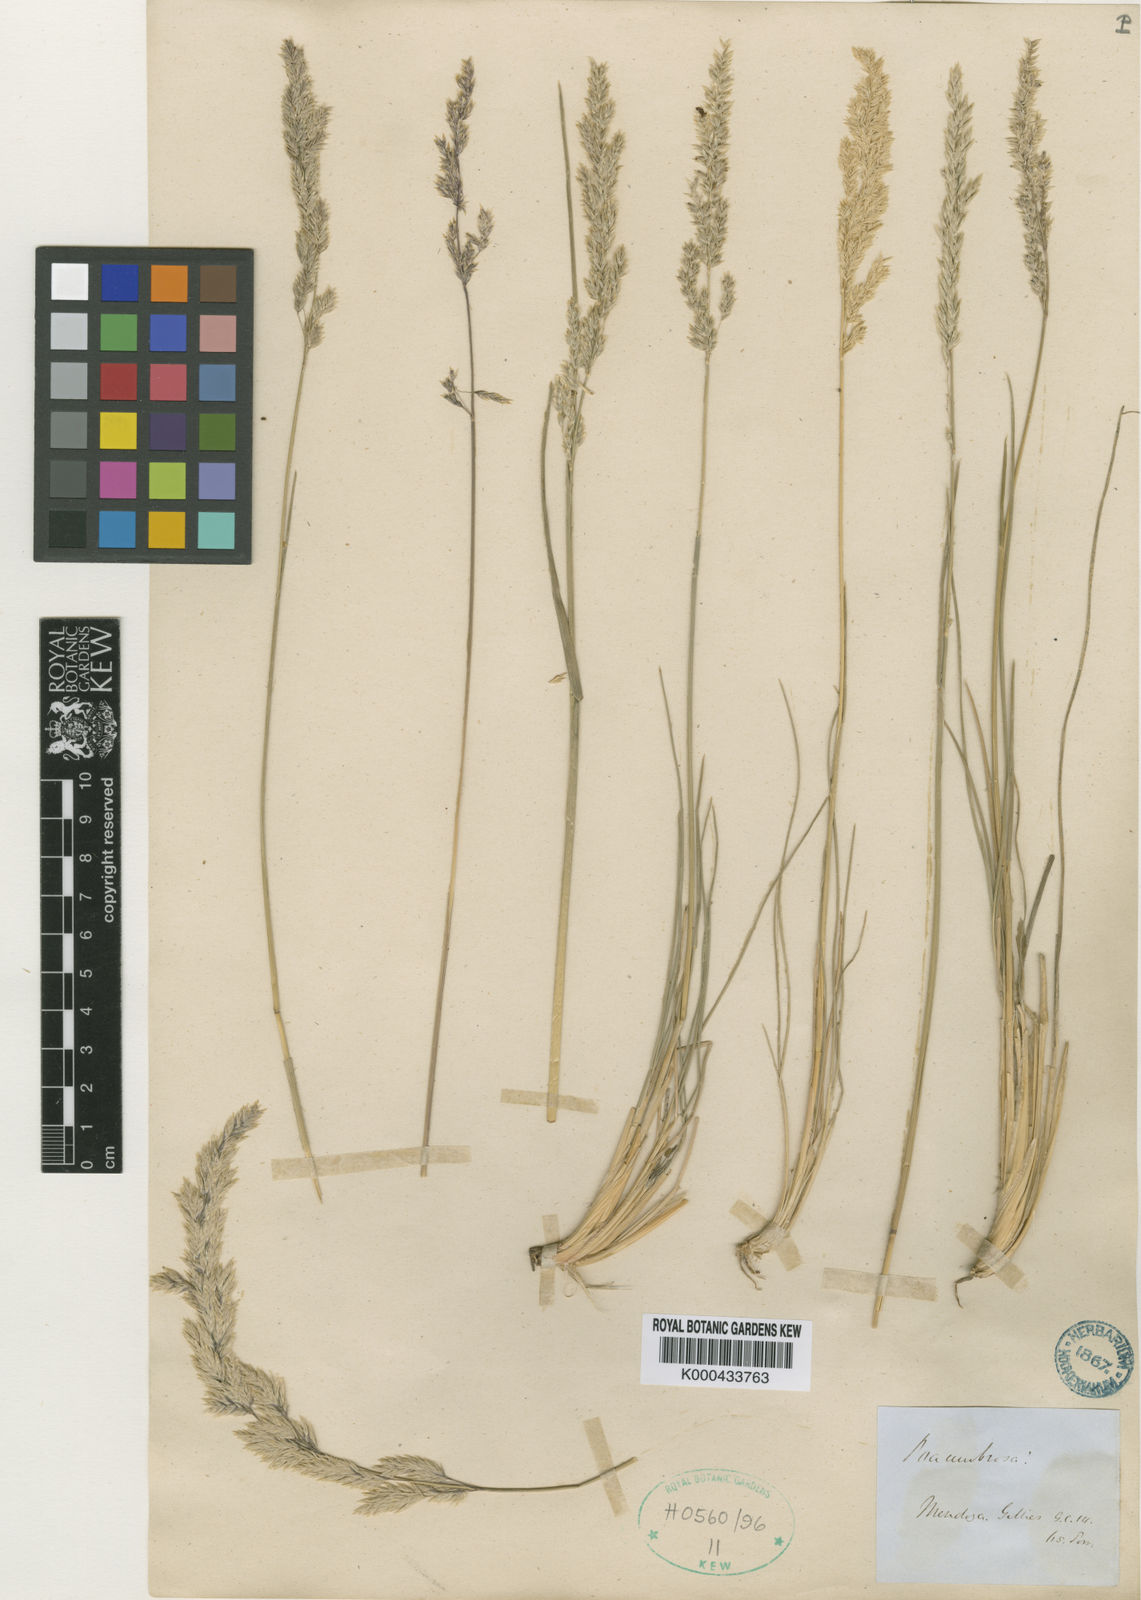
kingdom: Plantae
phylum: Tracheophyta
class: Liliopsida
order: Poales
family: Poaceae
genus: Poa
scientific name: Poa resinulosa
